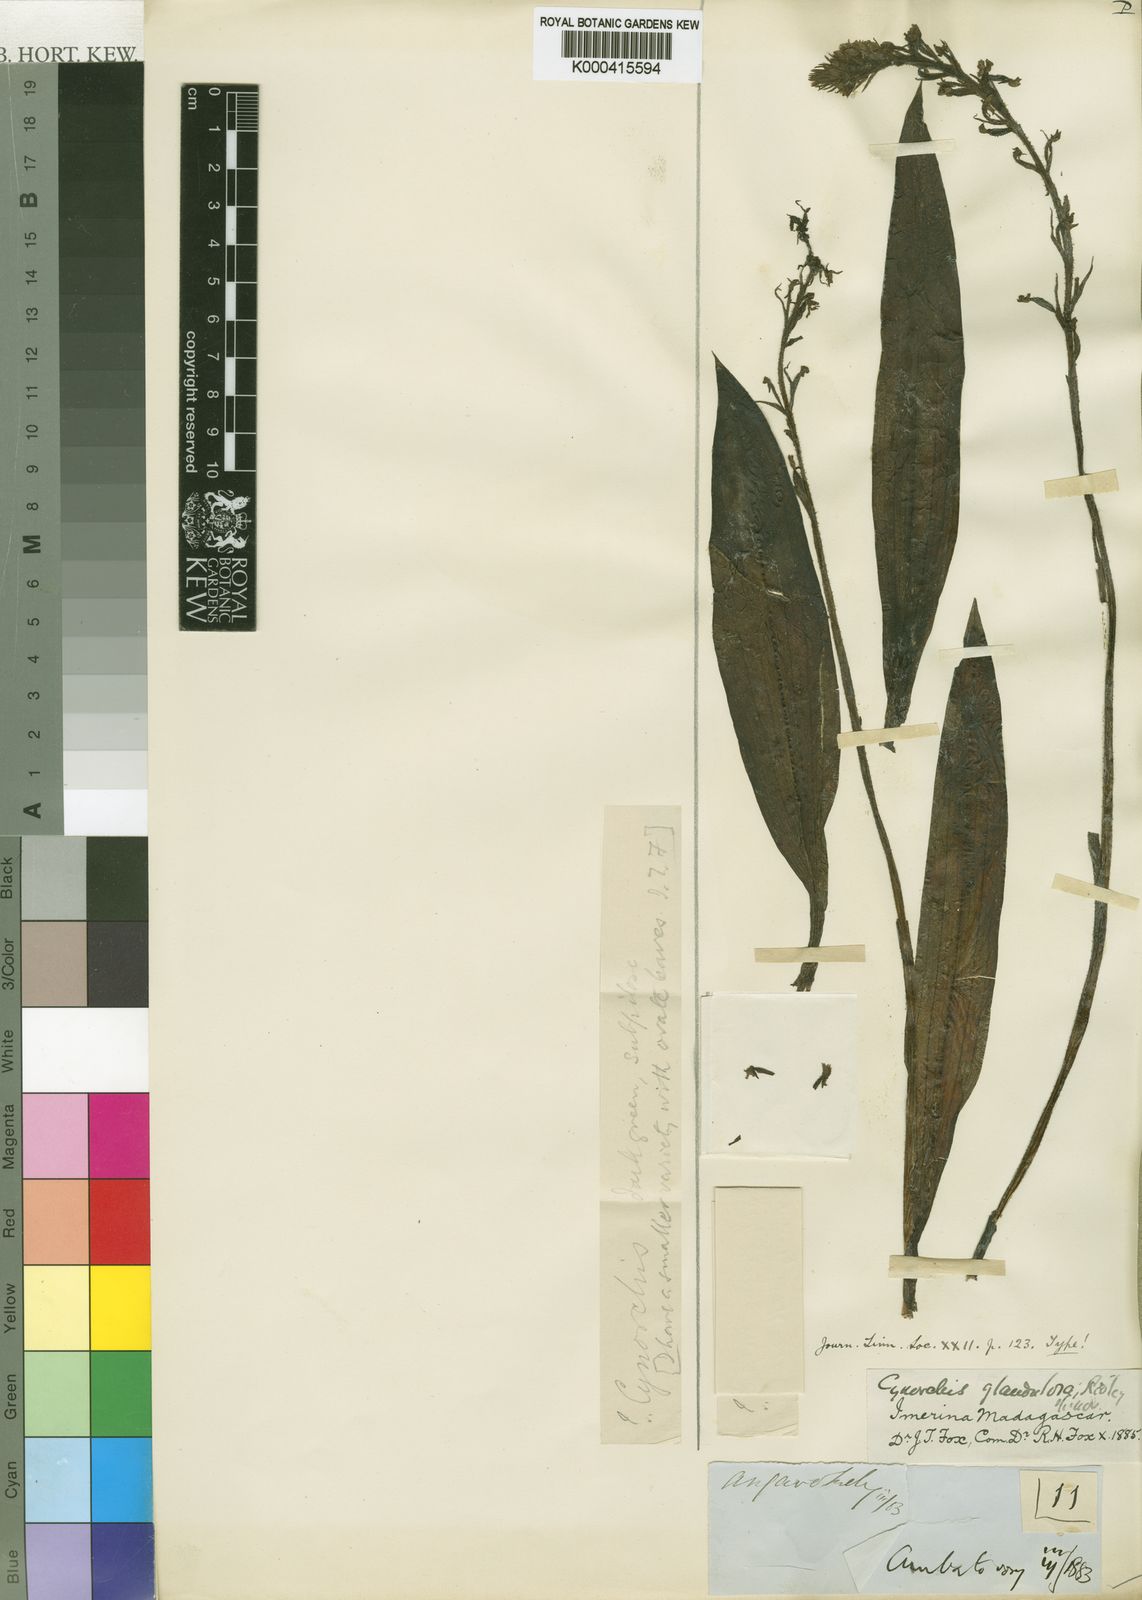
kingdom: Plantae
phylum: Tracheophyta
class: Liliopsida
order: Asparagales
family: Orchidaceae
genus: Cynorkis
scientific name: Cynorkis glandulosa
